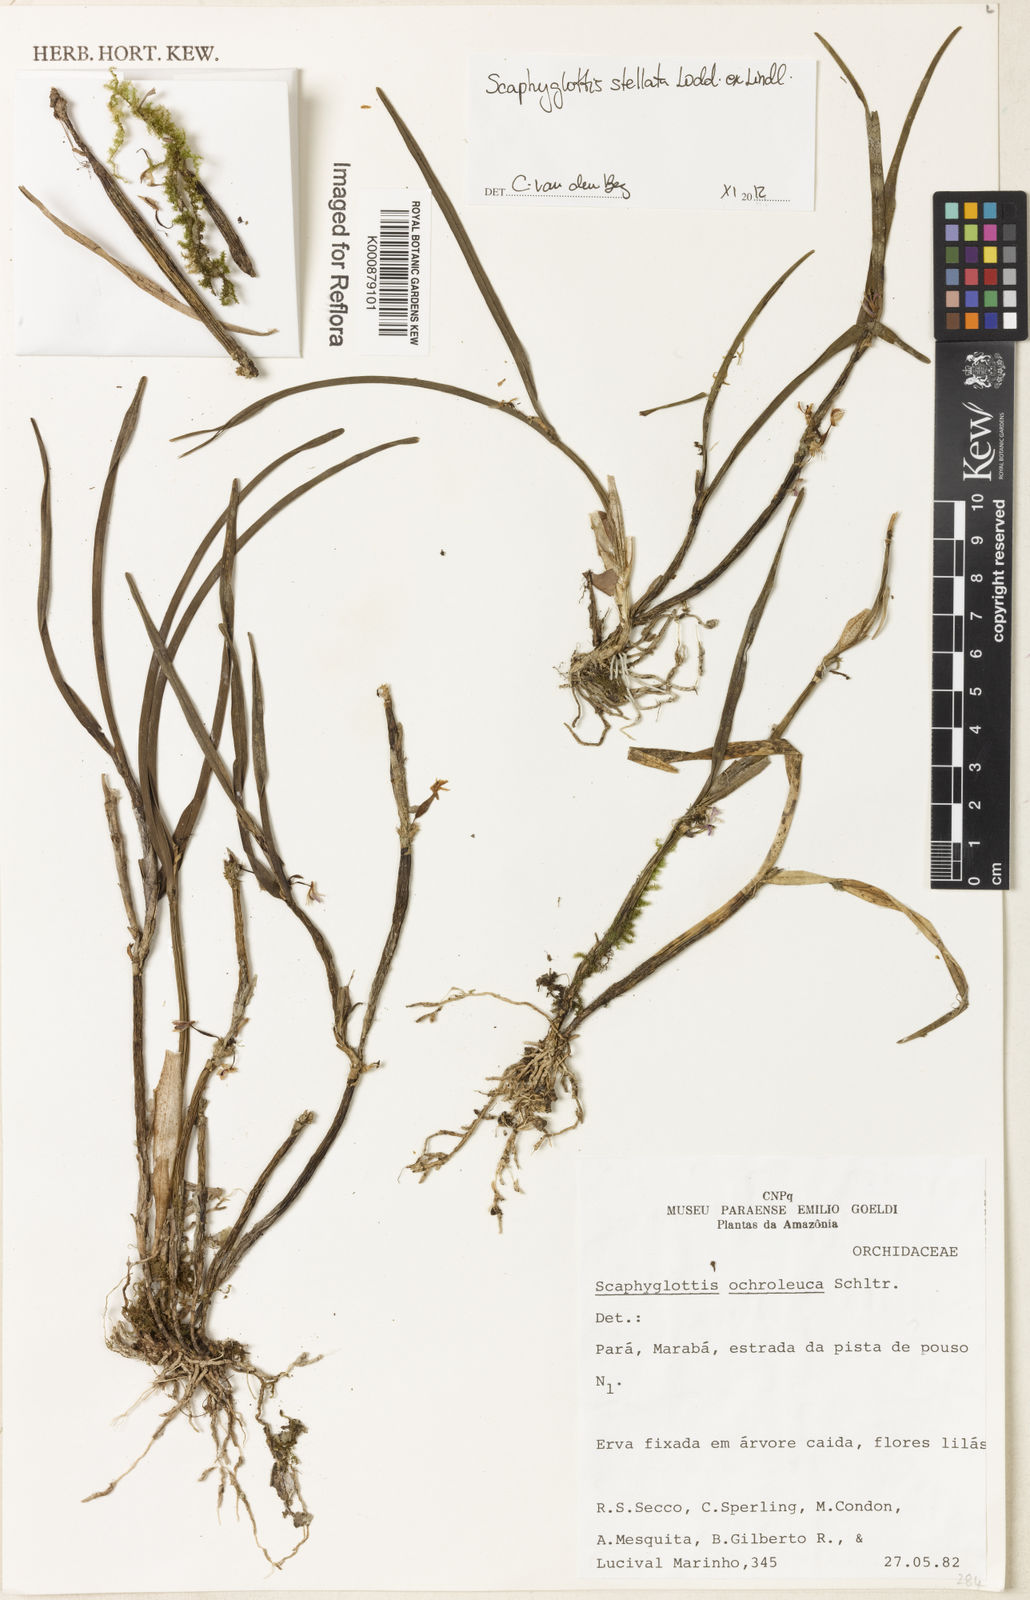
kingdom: Plantae
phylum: Tracheophyta
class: Liliopsida
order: Asparagales
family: Orchidaceae
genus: Scaphyglottis
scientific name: Scaphyglottis stellata
